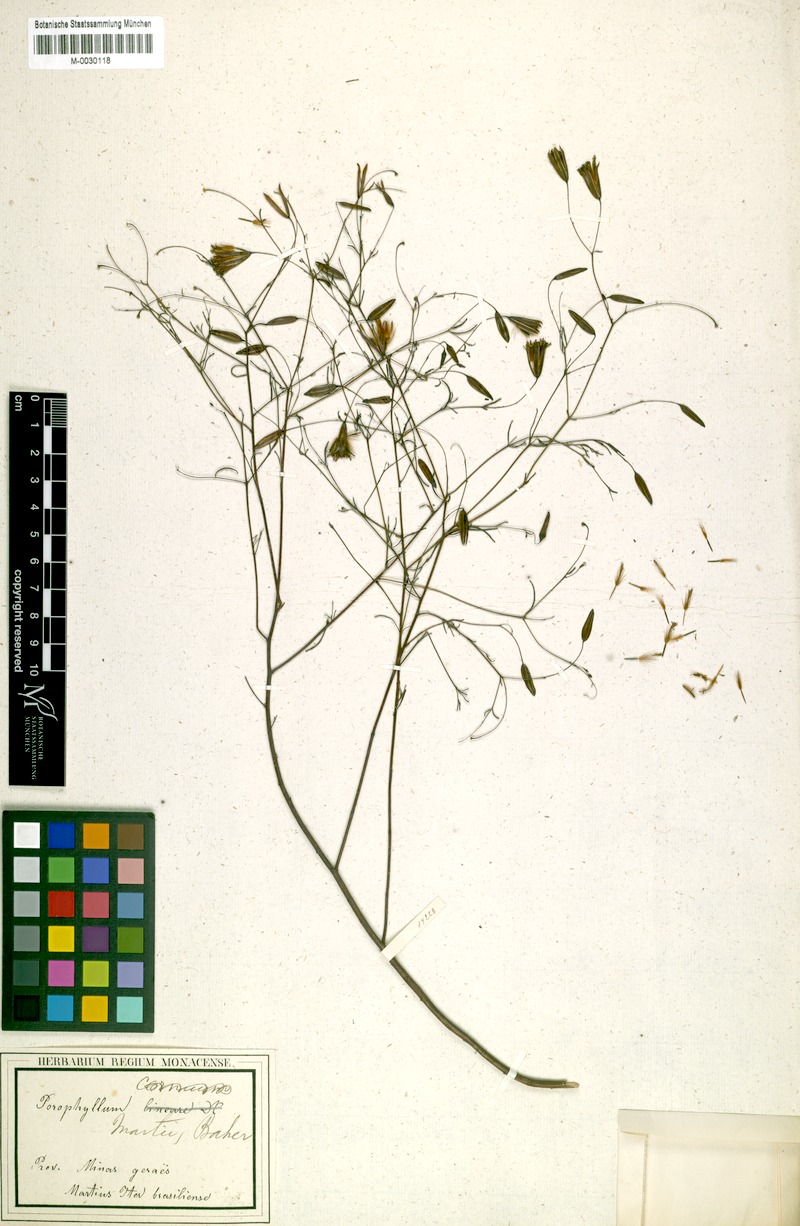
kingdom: Plantae
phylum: Tracheophyta
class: Magnoliopsida
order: Asterales
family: Asteraceae
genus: Porophyllum
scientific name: Porophyllum lanceolatum
